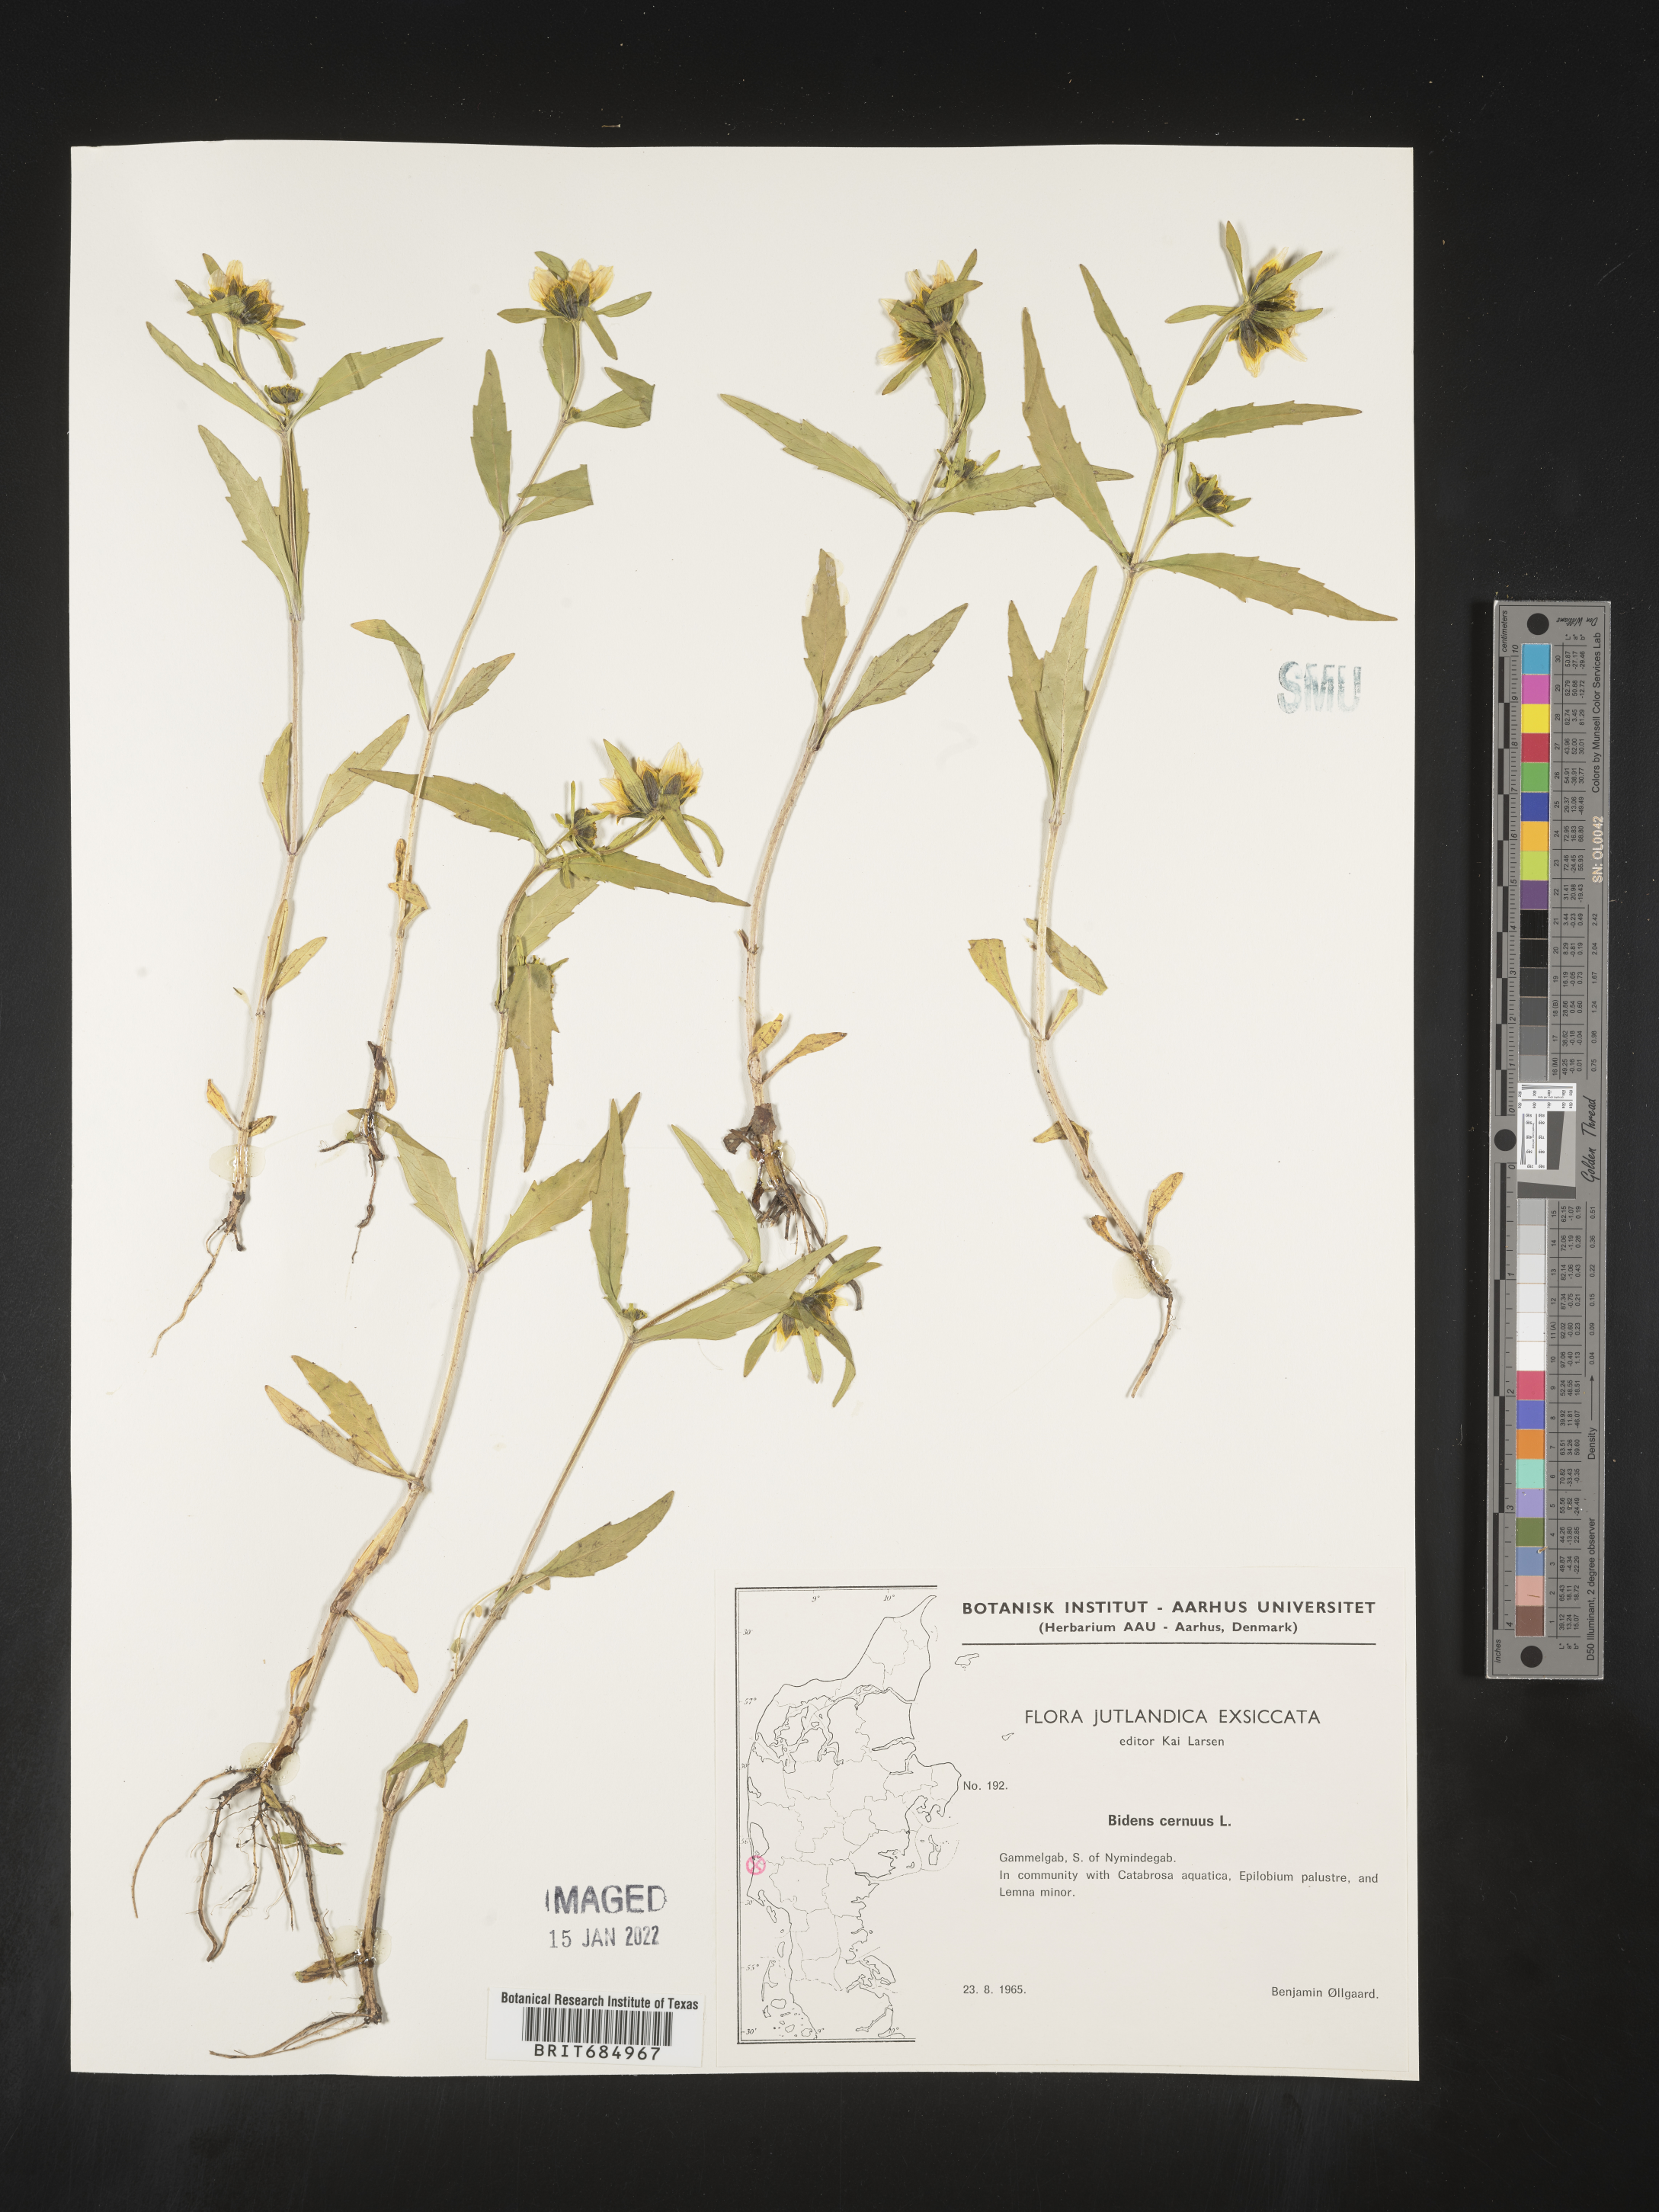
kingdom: Plantae
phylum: Tracheophyta
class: Magnoliopsida
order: Asterales
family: Asteraceae
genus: Bidens
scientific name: Bidens
